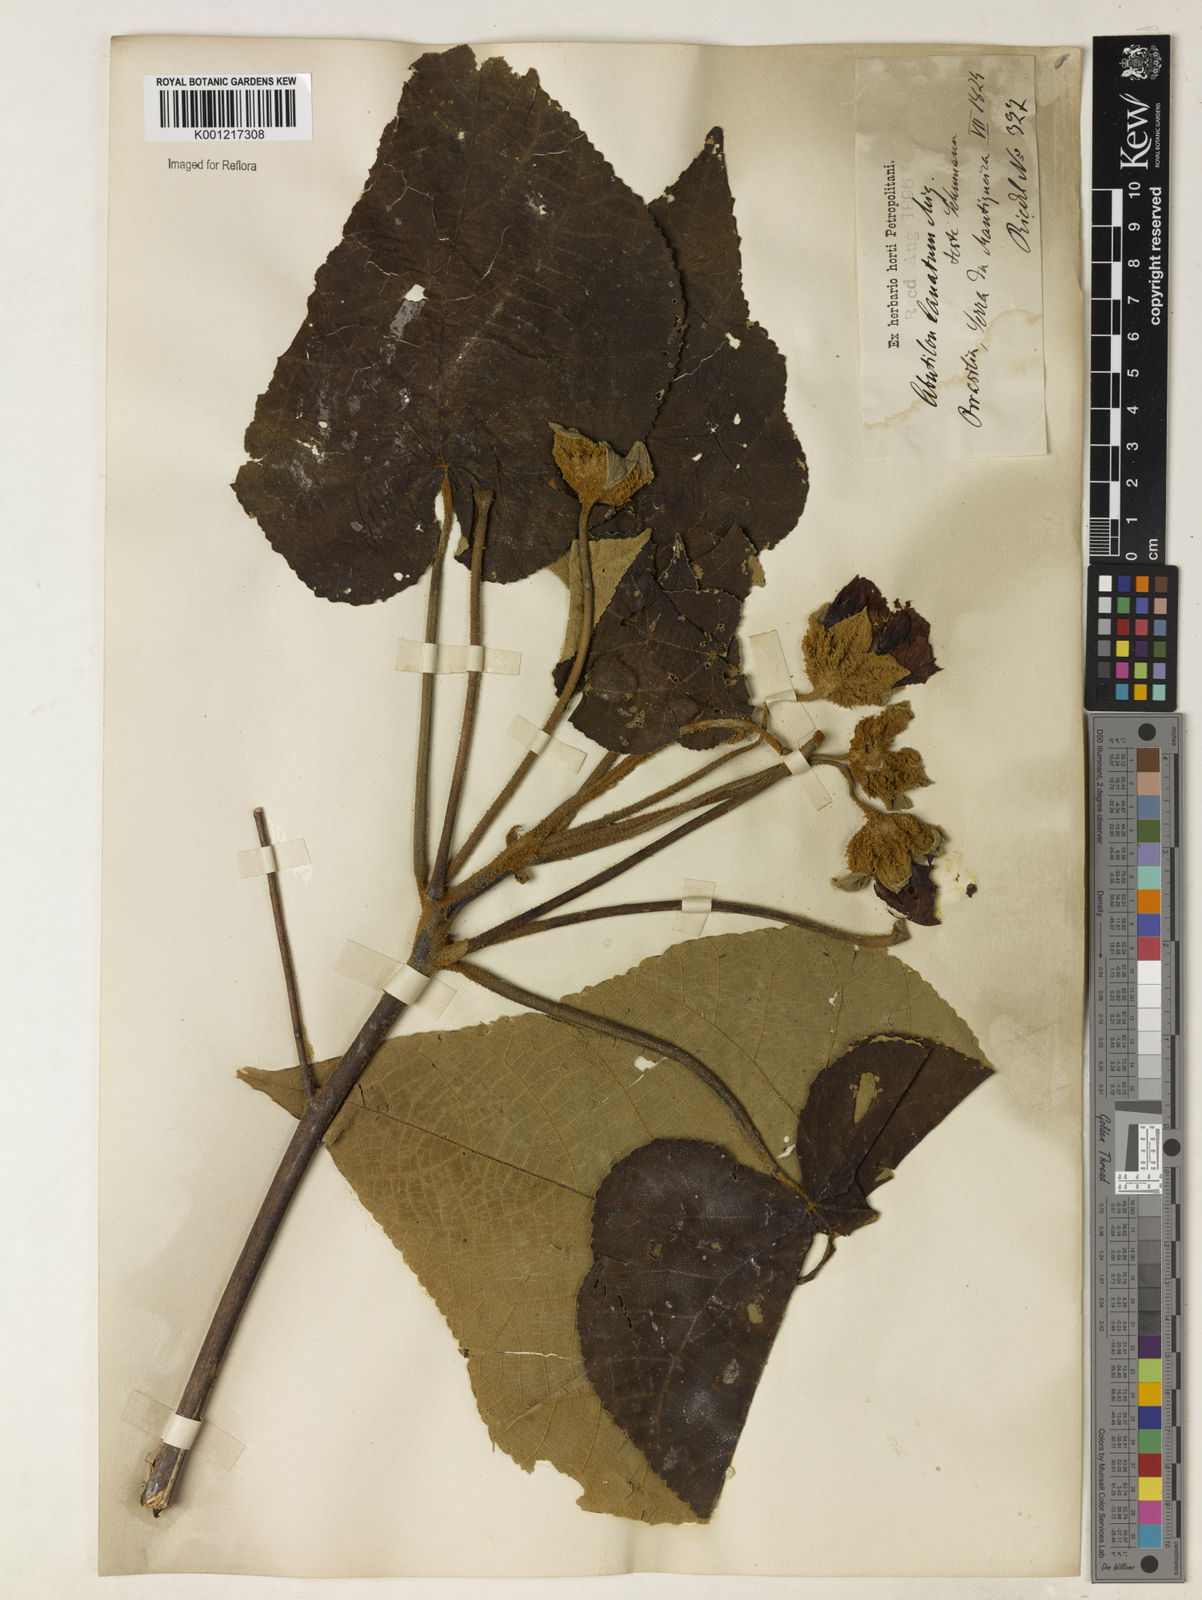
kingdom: Plantae
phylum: Tracheophyta
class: Magnoliopsida
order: Malvales
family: Malvaceae
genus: Callianthe
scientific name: Callianthe lanata
